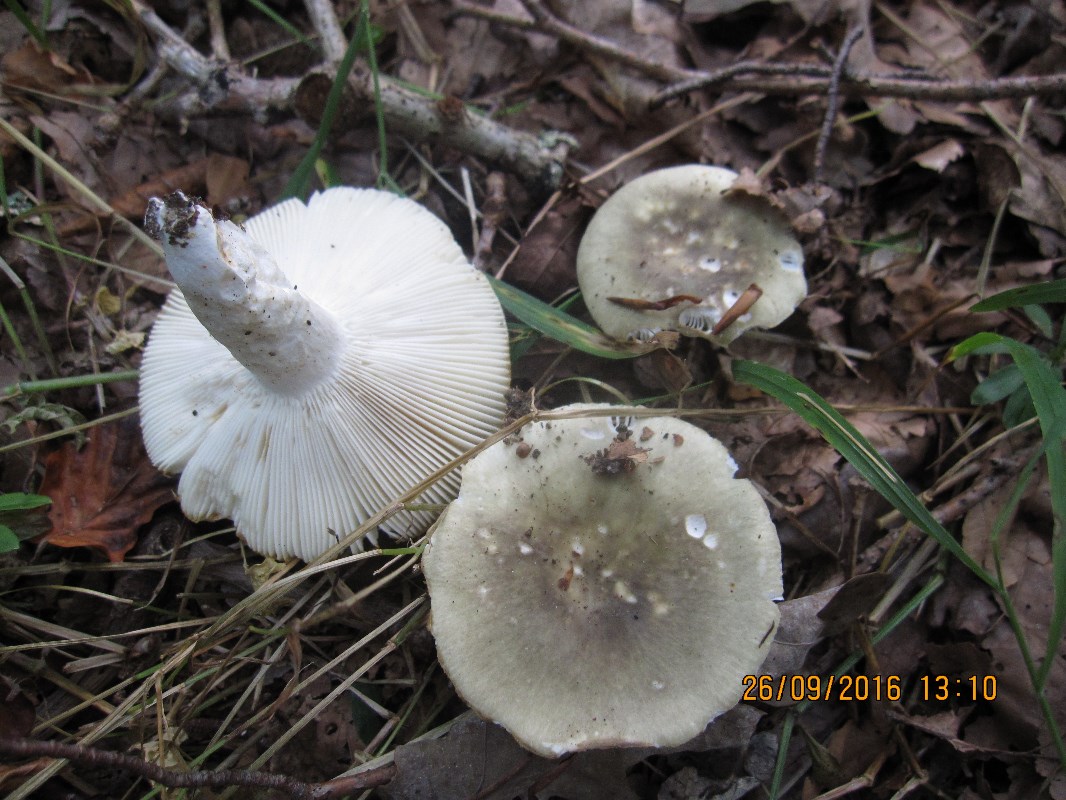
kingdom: Fungi
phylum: Basidiomycota
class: Agaricomycetes
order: Russulales
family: Russulaceae
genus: Russula
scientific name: Russula heterophylla
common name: gaffelbladet skørhat
